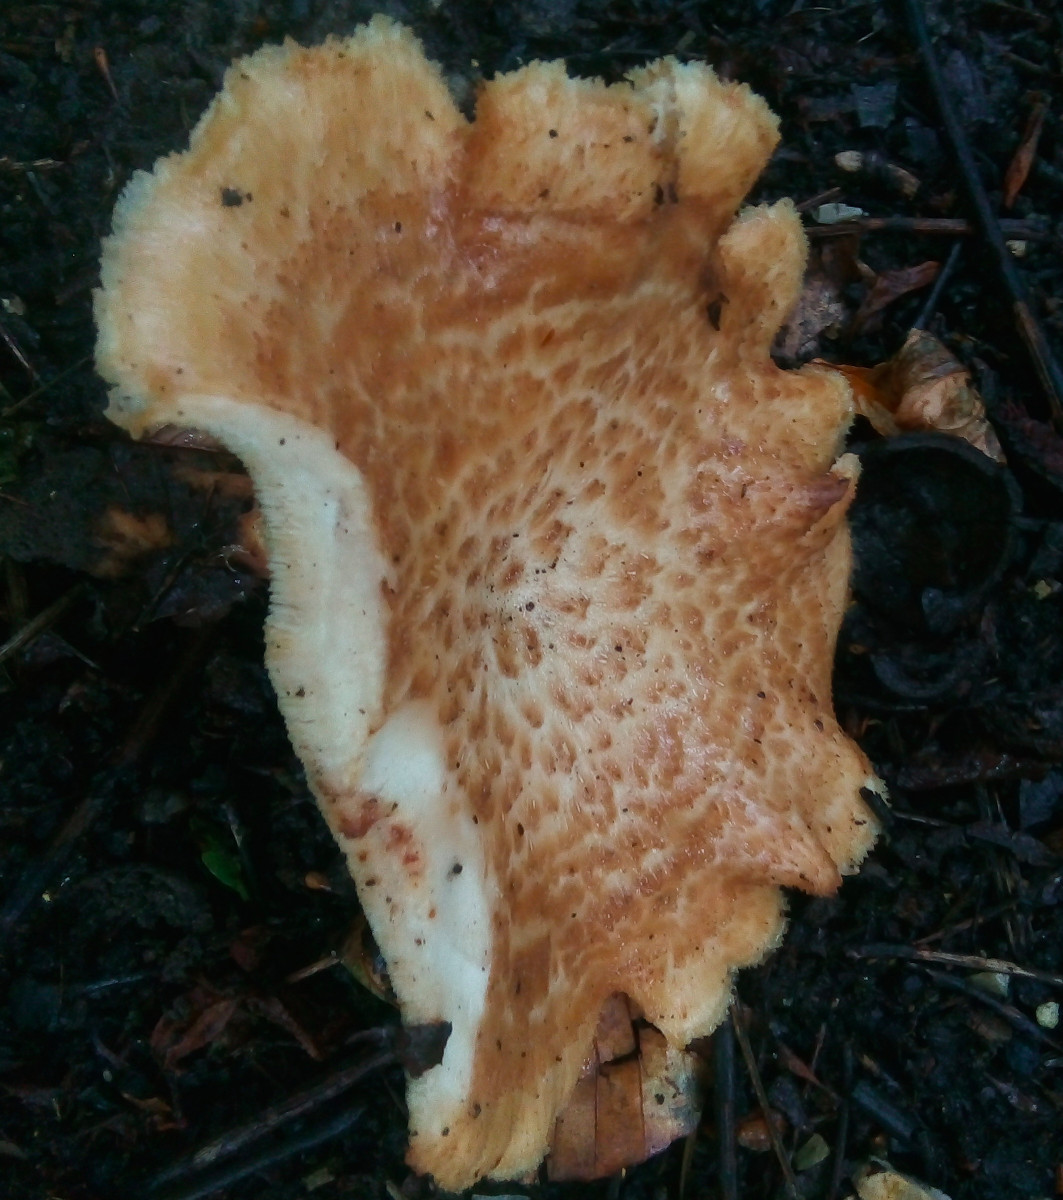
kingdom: Fungi
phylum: Basidiomycota
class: Agaricomycetes
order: Polyporales
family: Polyporaceae
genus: Polyporus
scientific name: Polyporus tuberaster
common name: knoldet stilkporesvamp
